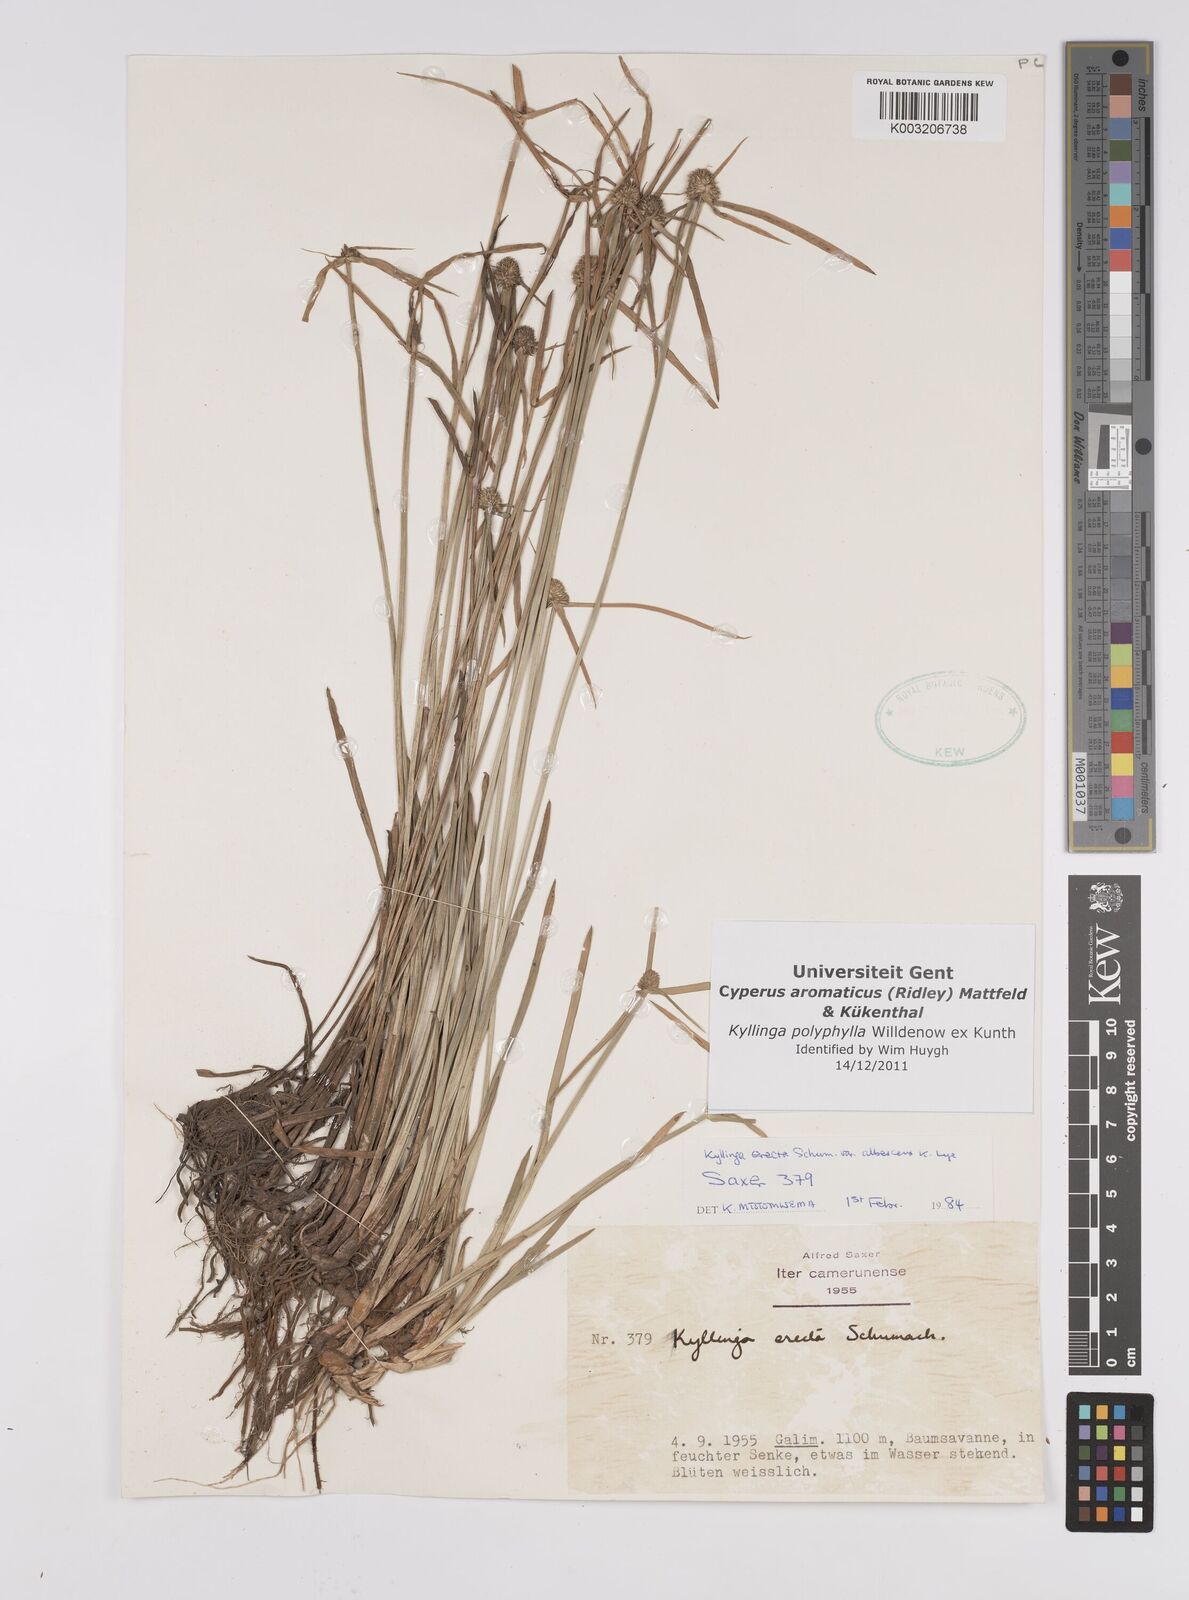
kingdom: Plantae
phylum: Tracheophyta
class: Liliopsida
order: Poales
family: Cyperaceae
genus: Cyperus
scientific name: Cyperus
